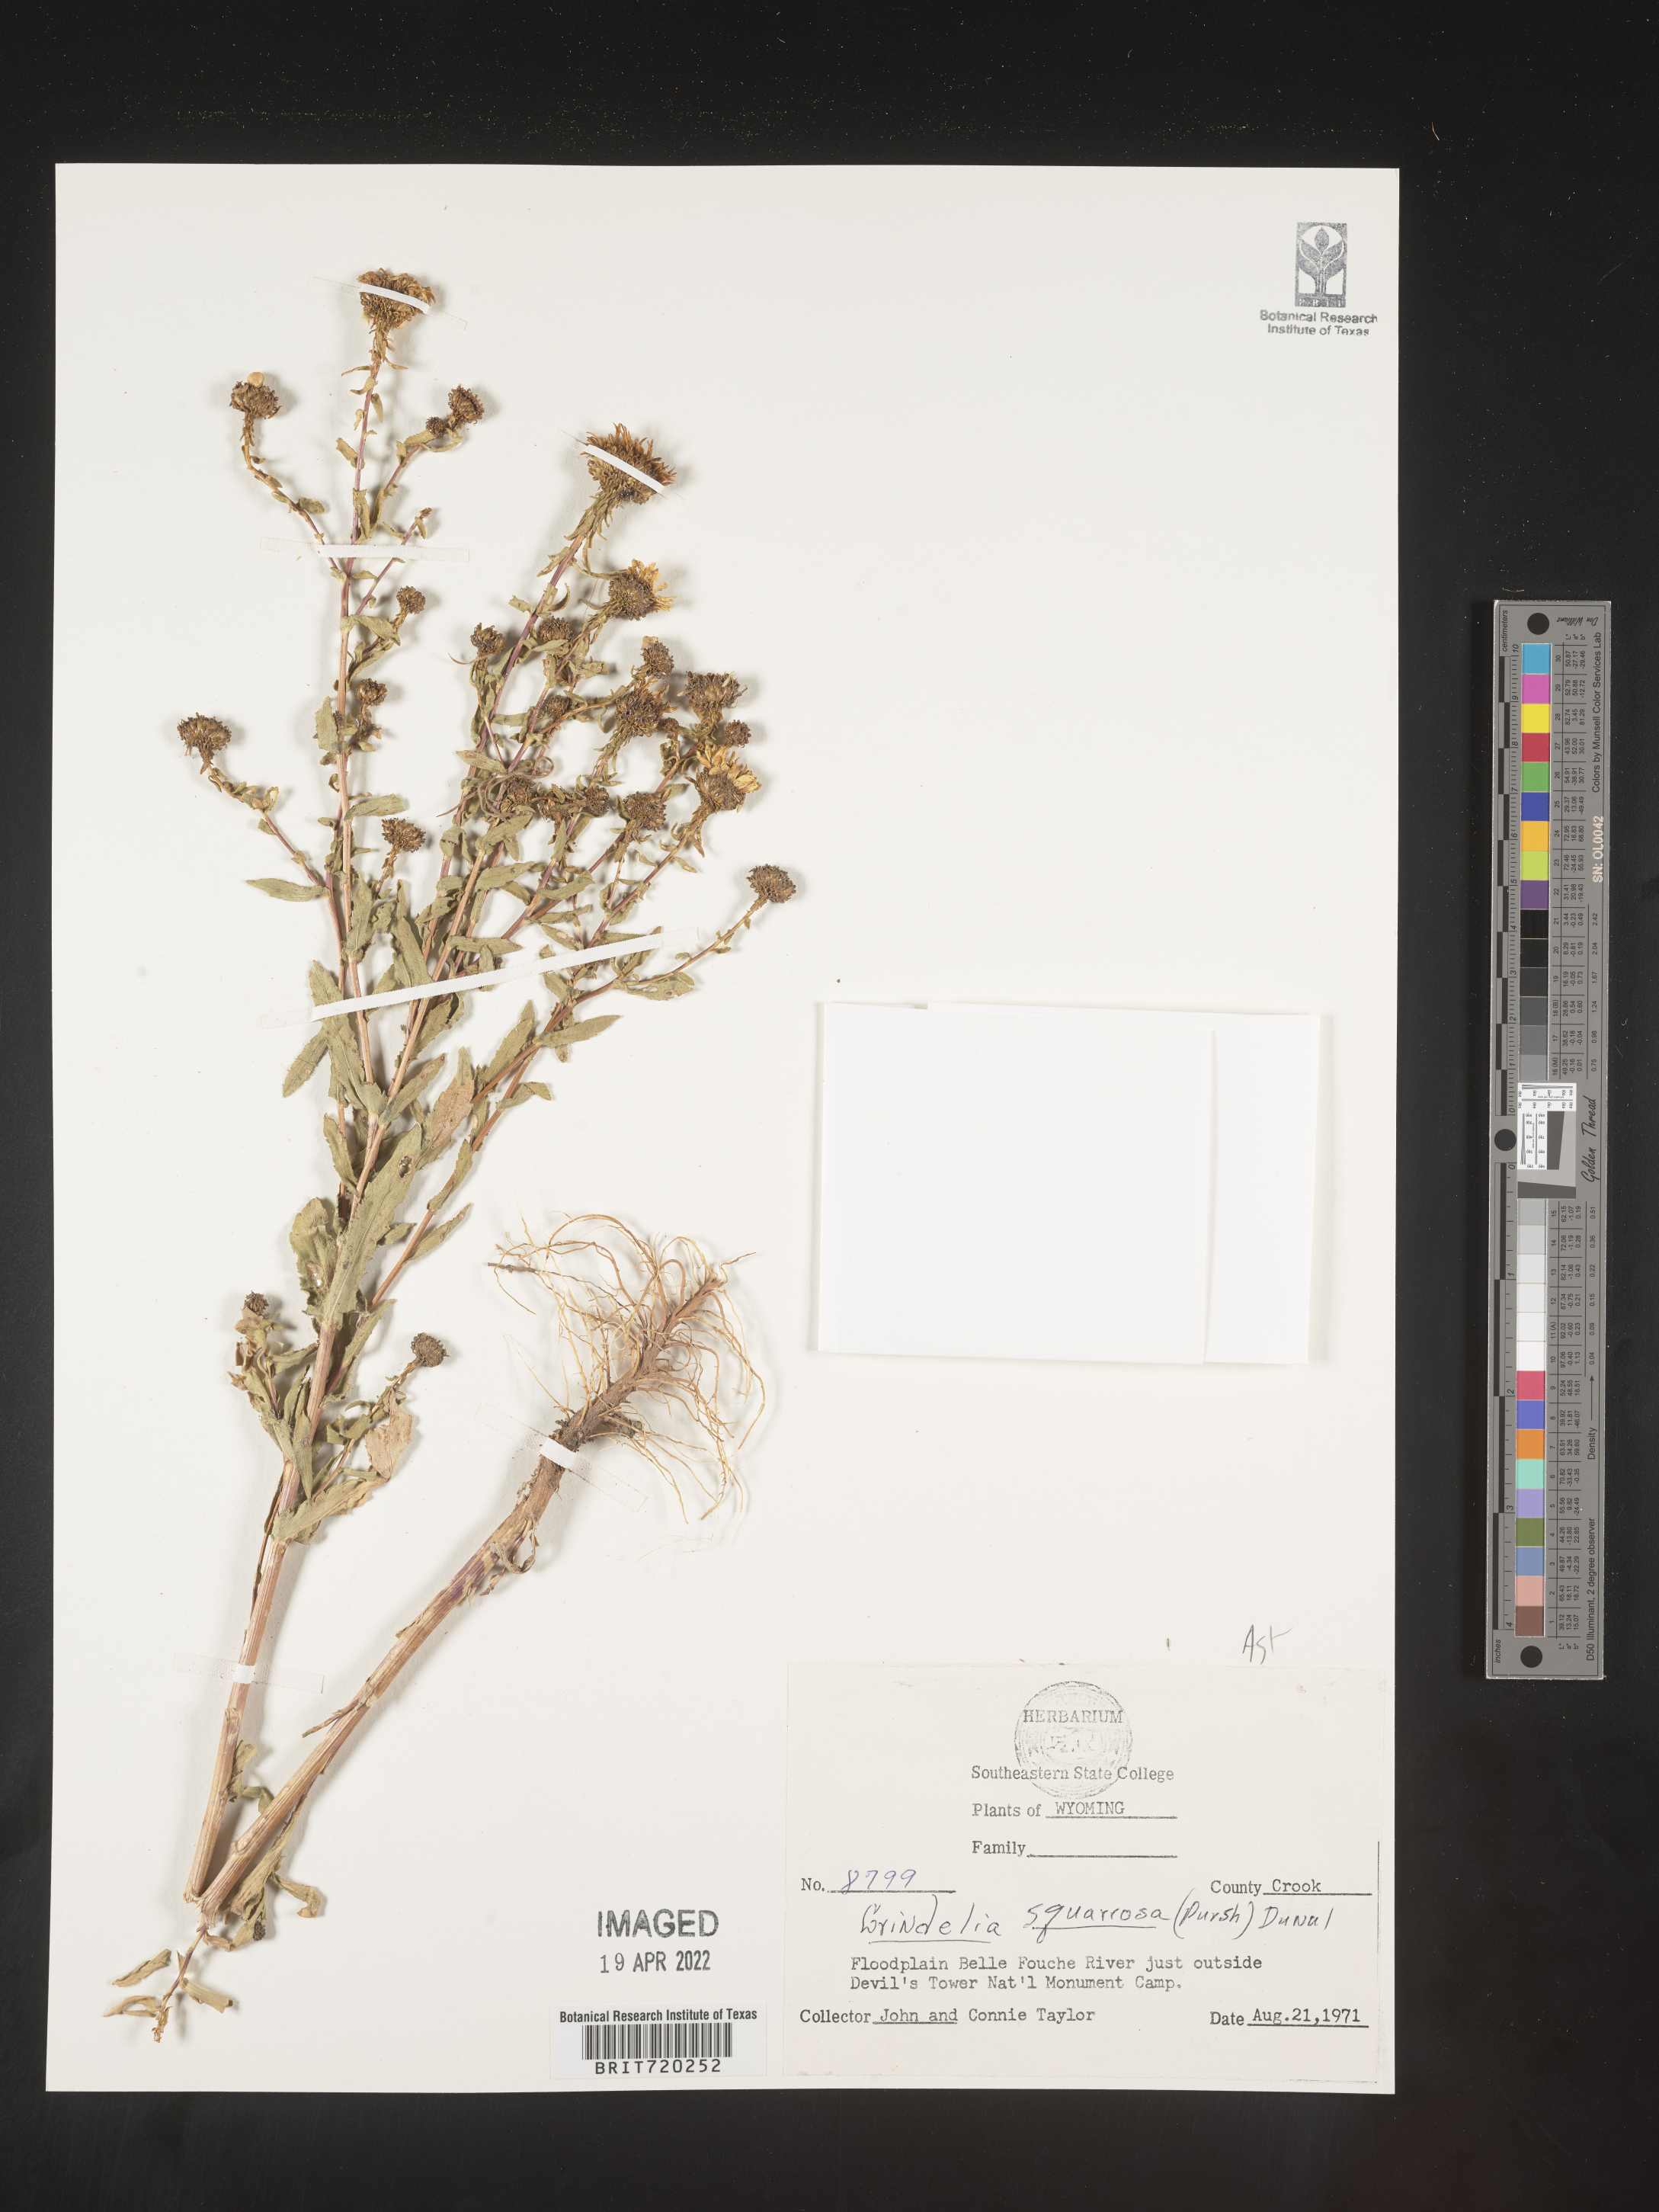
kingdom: Plantae
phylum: Tracheophyta
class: Magnoliopsida
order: Asterales
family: Asteraceae
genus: Grindelia
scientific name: Grindelia squarrosa
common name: Curly-cup gumweed
